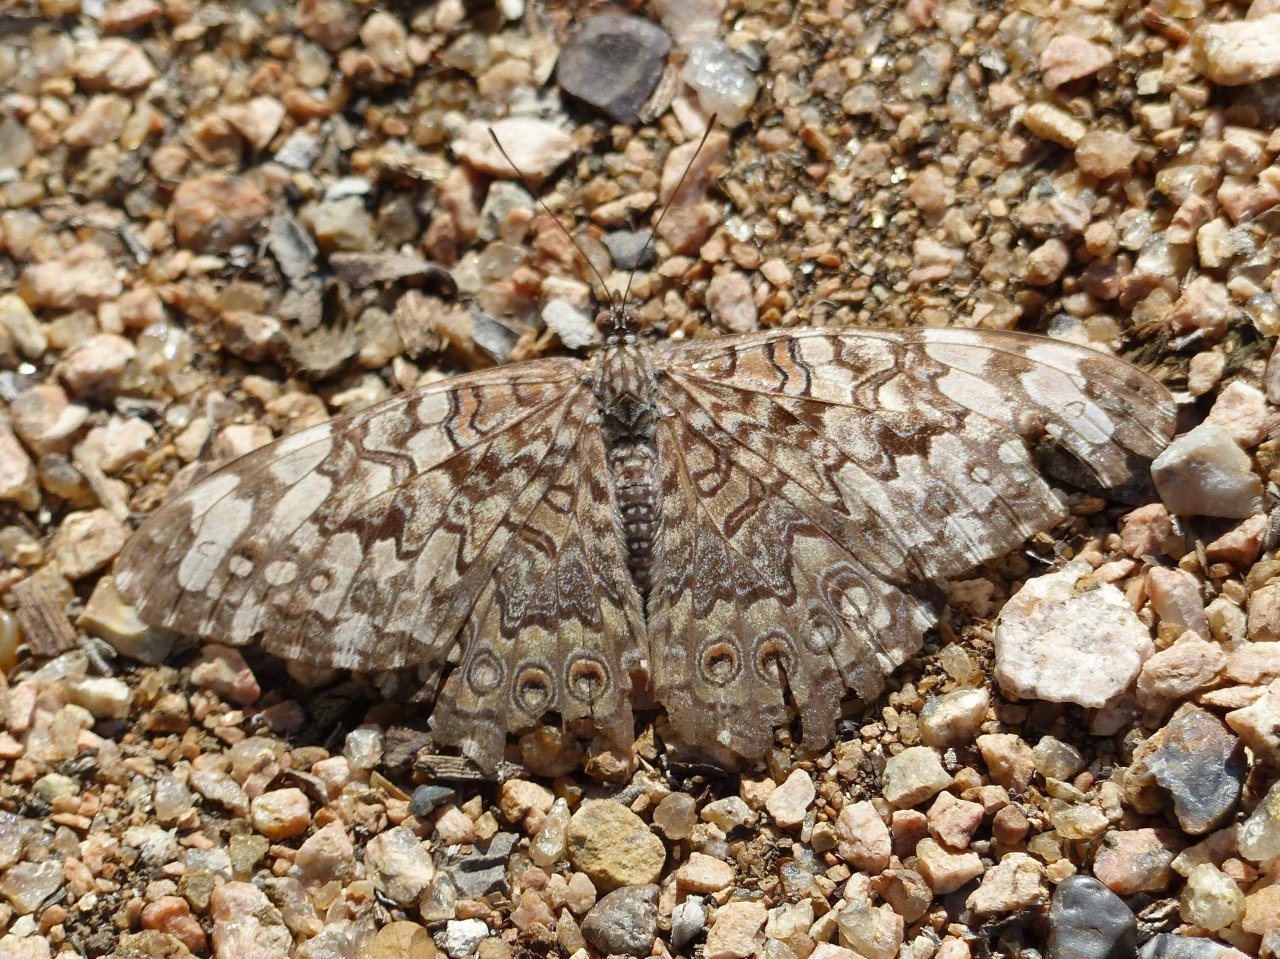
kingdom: Animalia
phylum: Arthropoda
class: Insecta
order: Lepidoptera
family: Nymphalidae
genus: Hamadryas
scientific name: Hamadryas februa
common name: Gray Cracker
